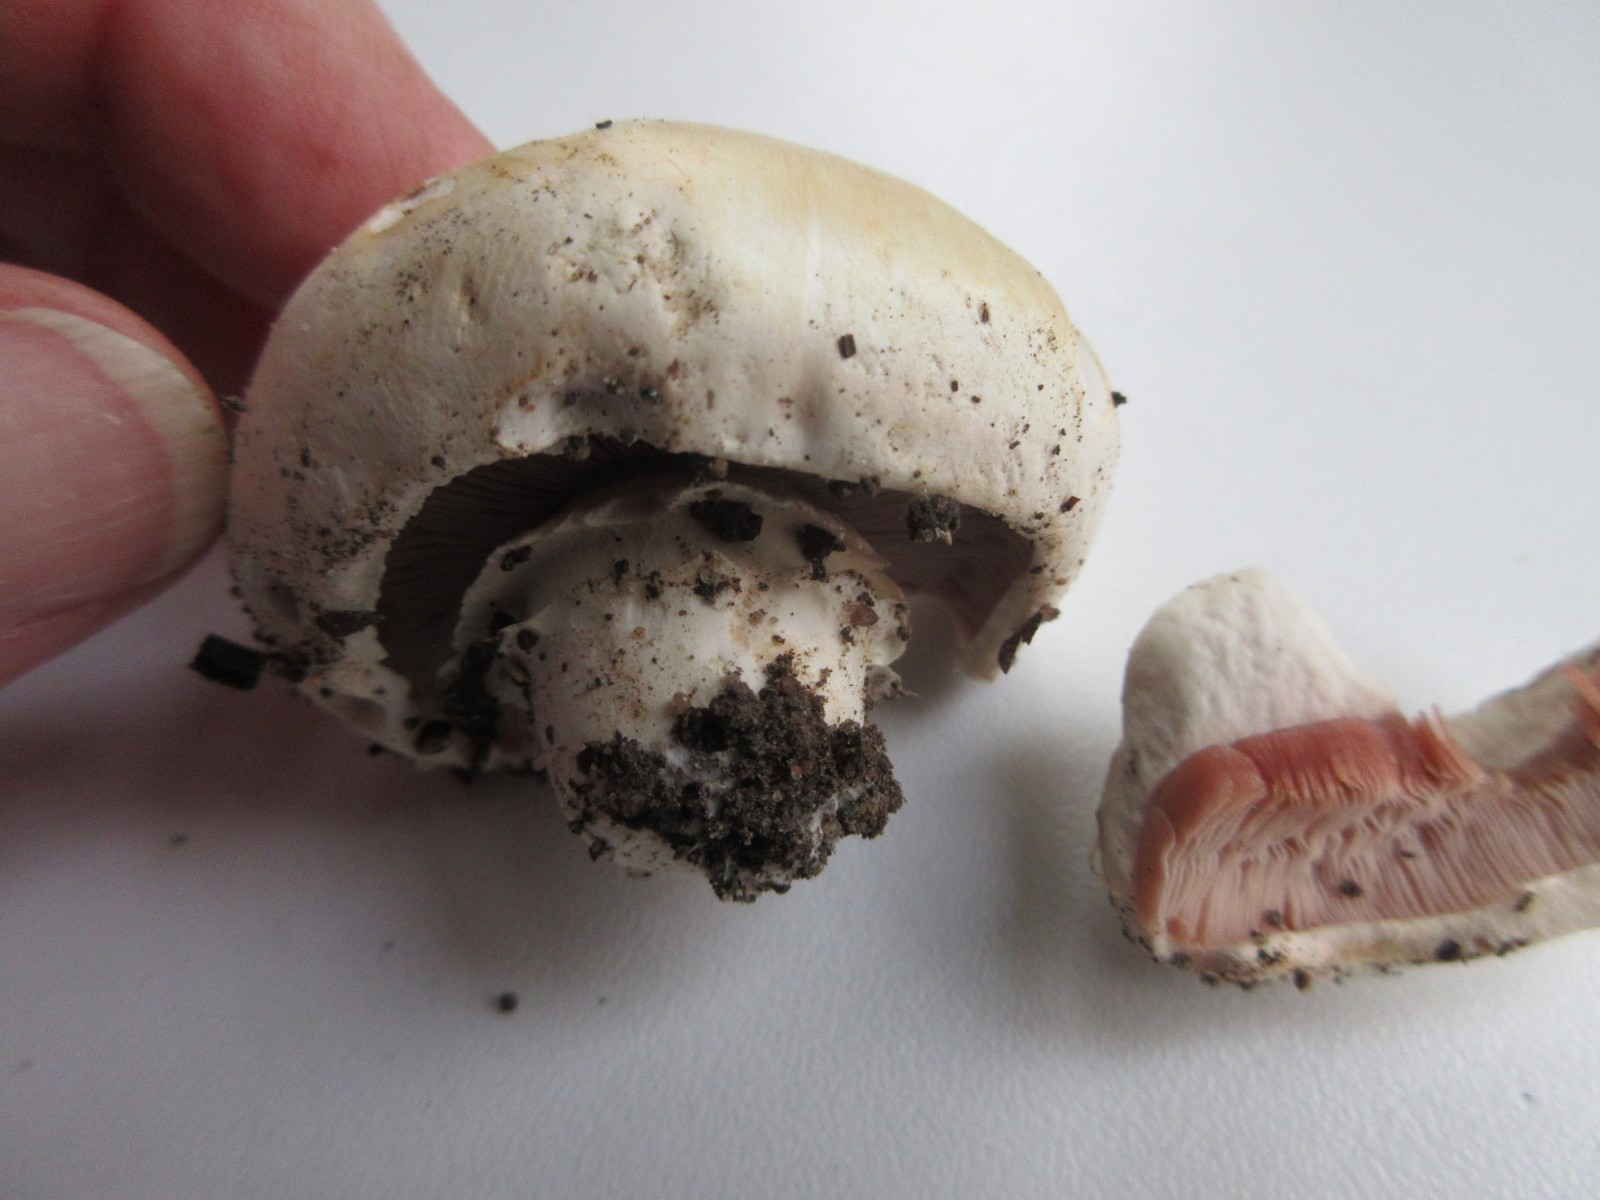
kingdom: Fungi
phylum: Basidiomycota
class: Agaricomycetes
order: Agaricales
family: Agaricaceae
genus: Agaricus
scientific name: Agaricus bitorquis
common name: vej-champignon
